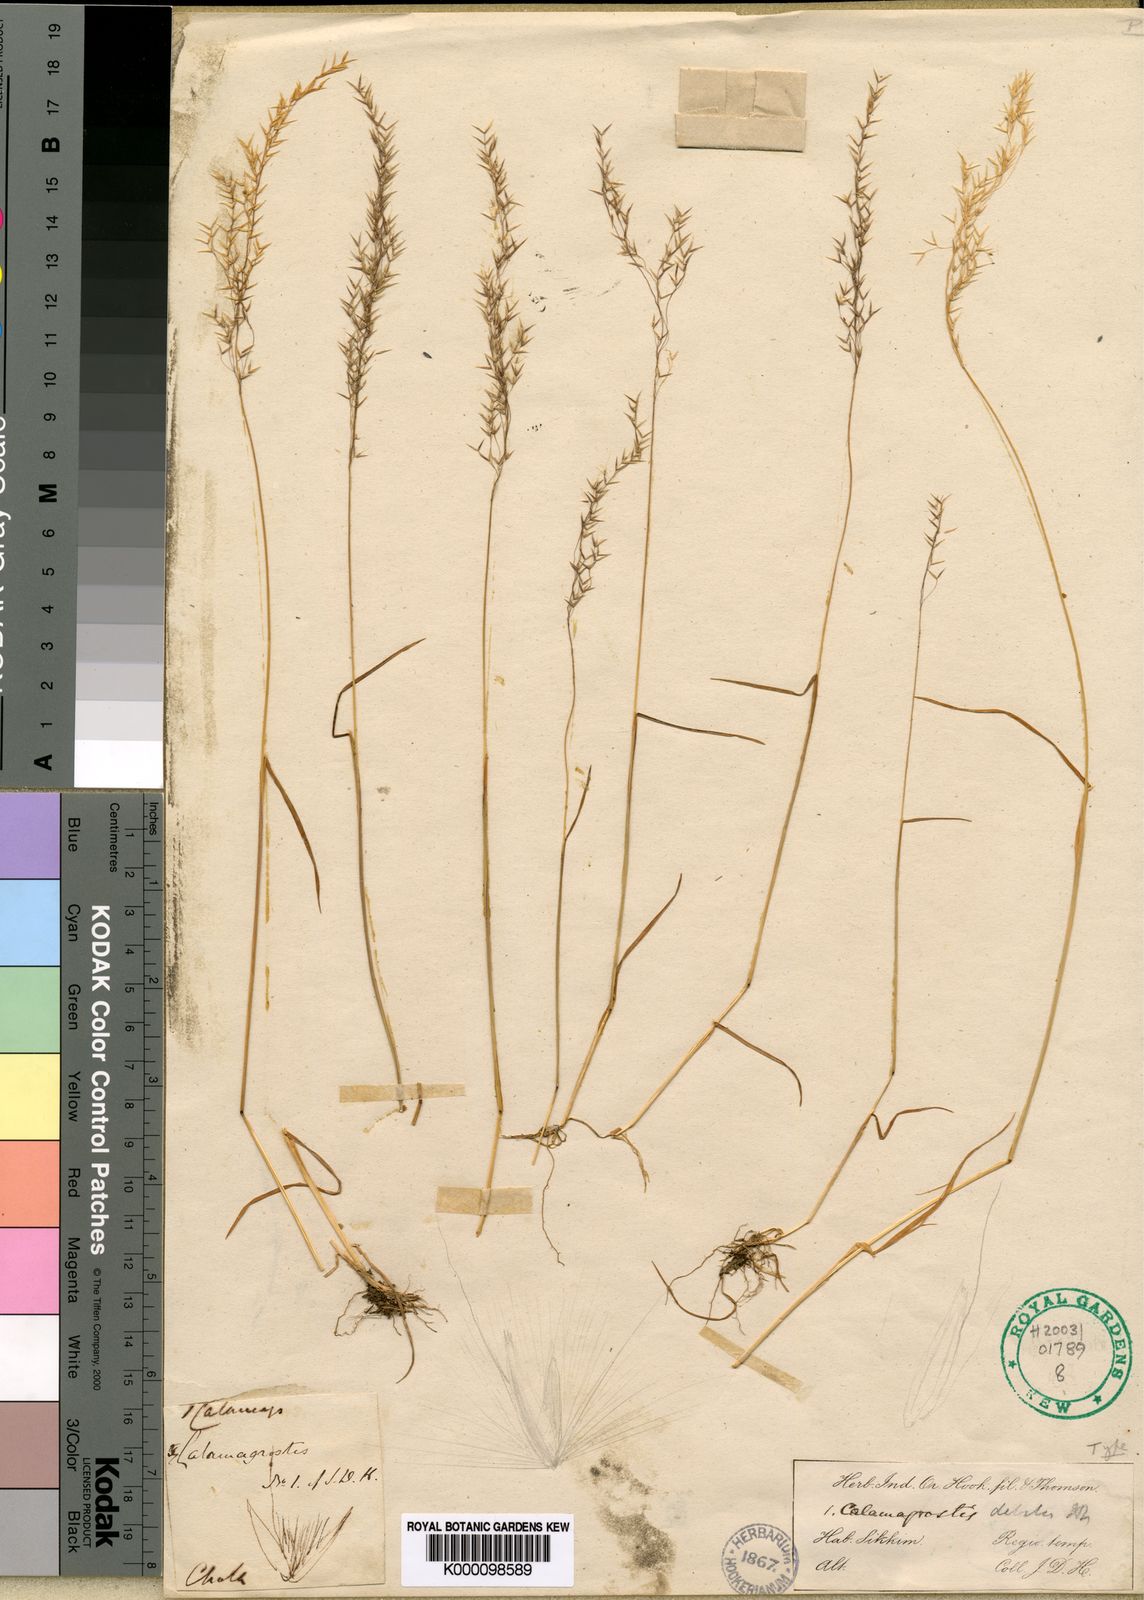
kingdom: Plantae
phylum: Tracheophyta
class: Liliopsida
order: Poales
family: Poaceae
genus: Calamagrostis
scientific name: Calamagrostis debilis
